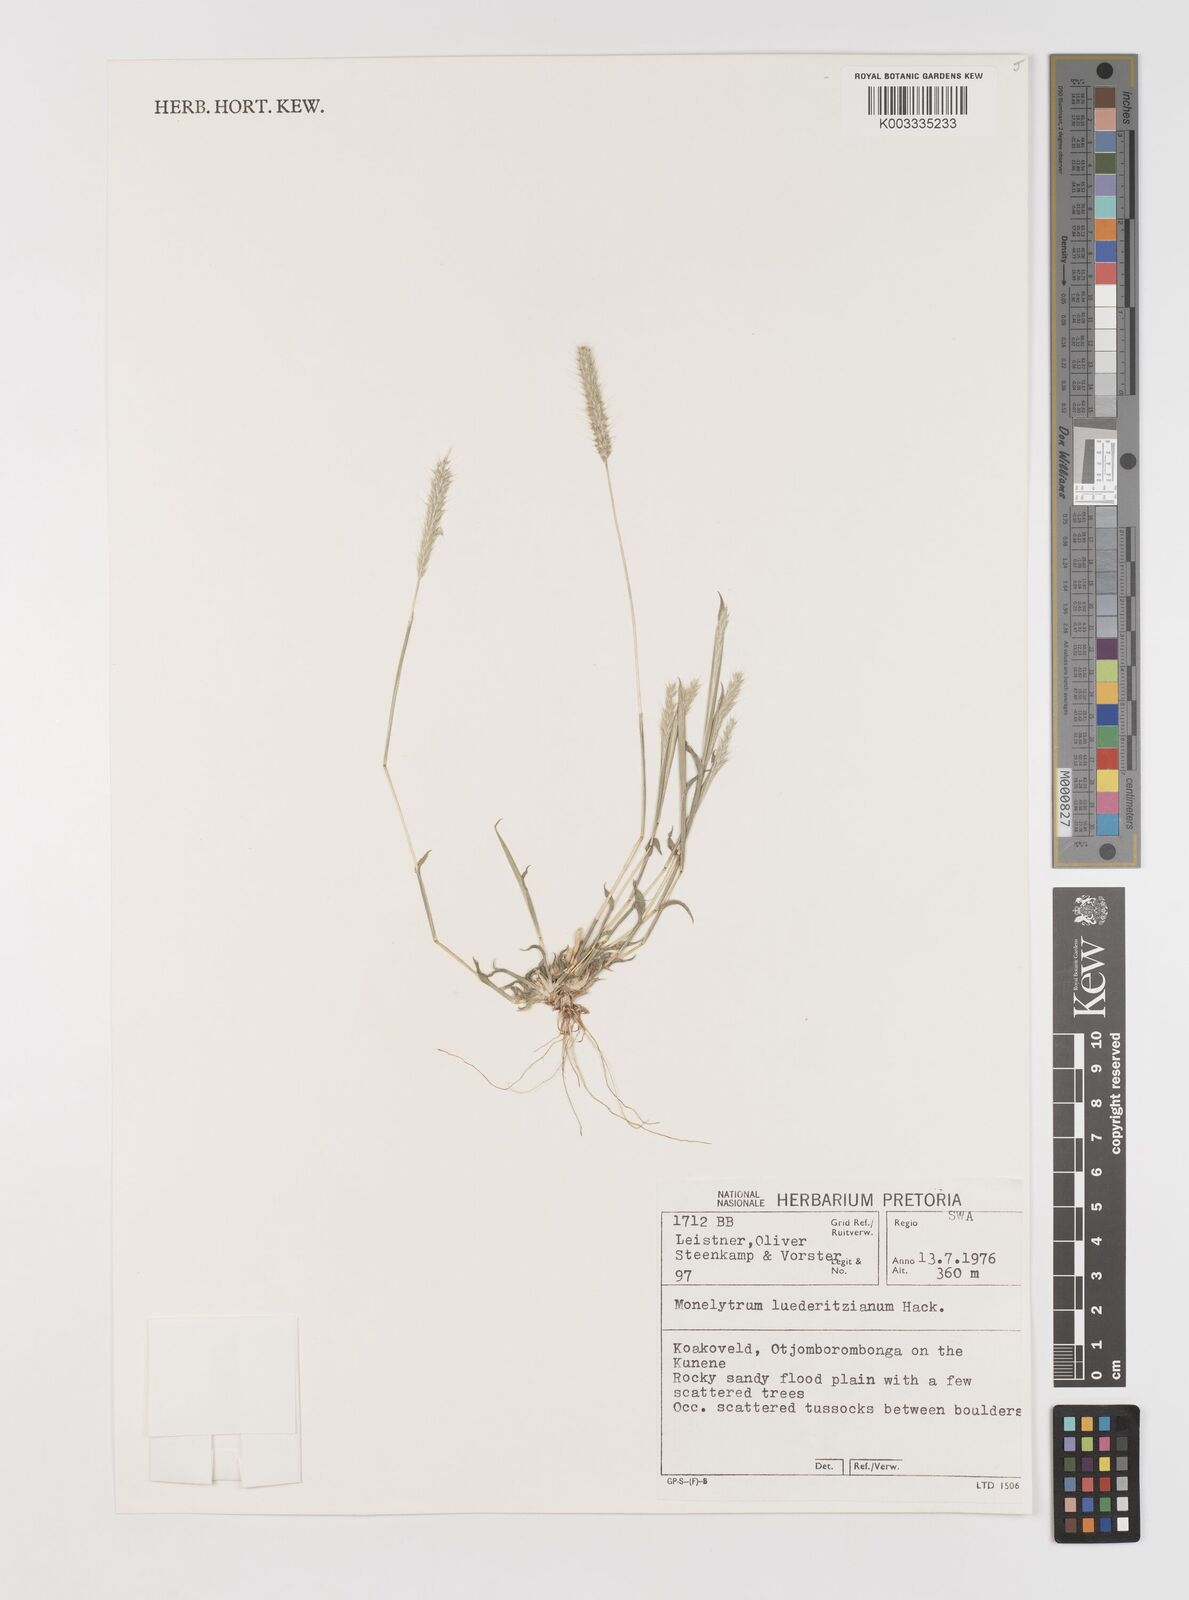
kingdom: Plantae
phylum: Tracheophyta
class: Liliopsida
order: Poales
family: Poaceae
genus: Monelytrum
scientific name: Monelytrum luederitzianum
